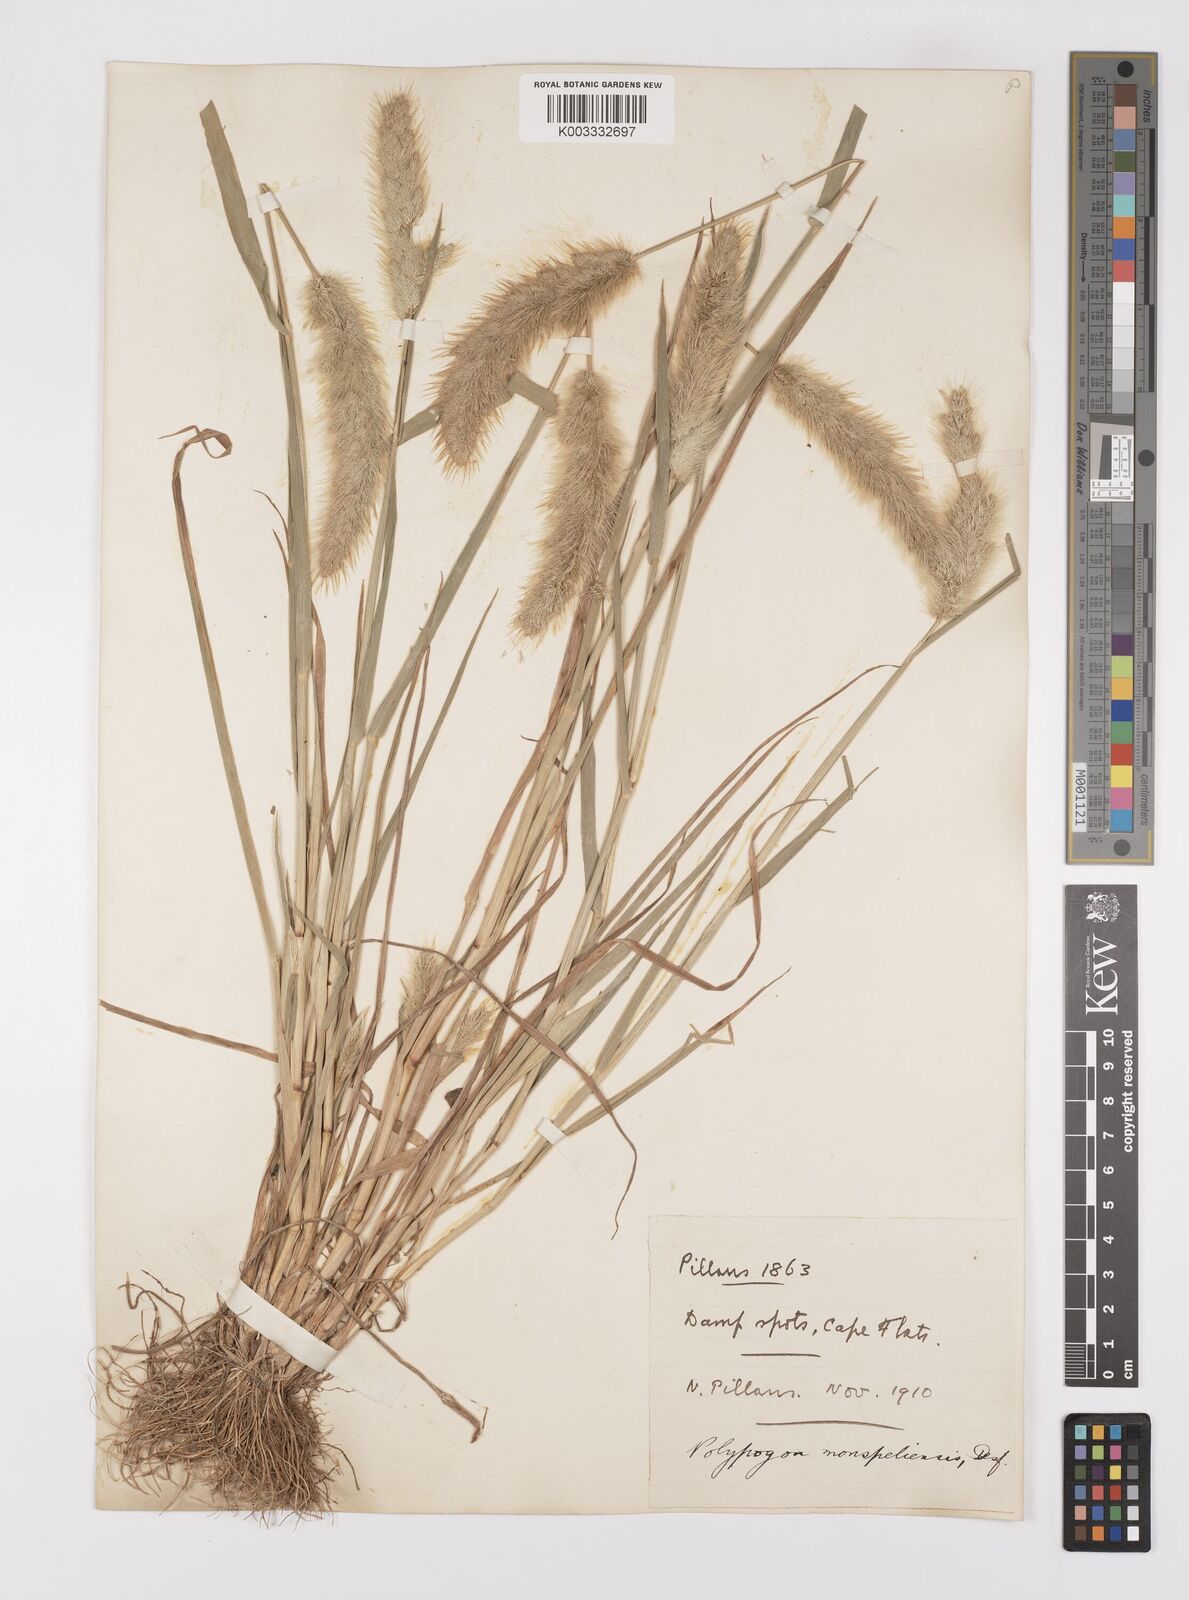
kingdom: Plantae
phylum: Tracheophyta
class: Liliopsida
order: Poales
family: Poaceae
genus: Polypogon
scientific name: Polypogon monspeliensis
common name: Annual rabbitsfoot grass
